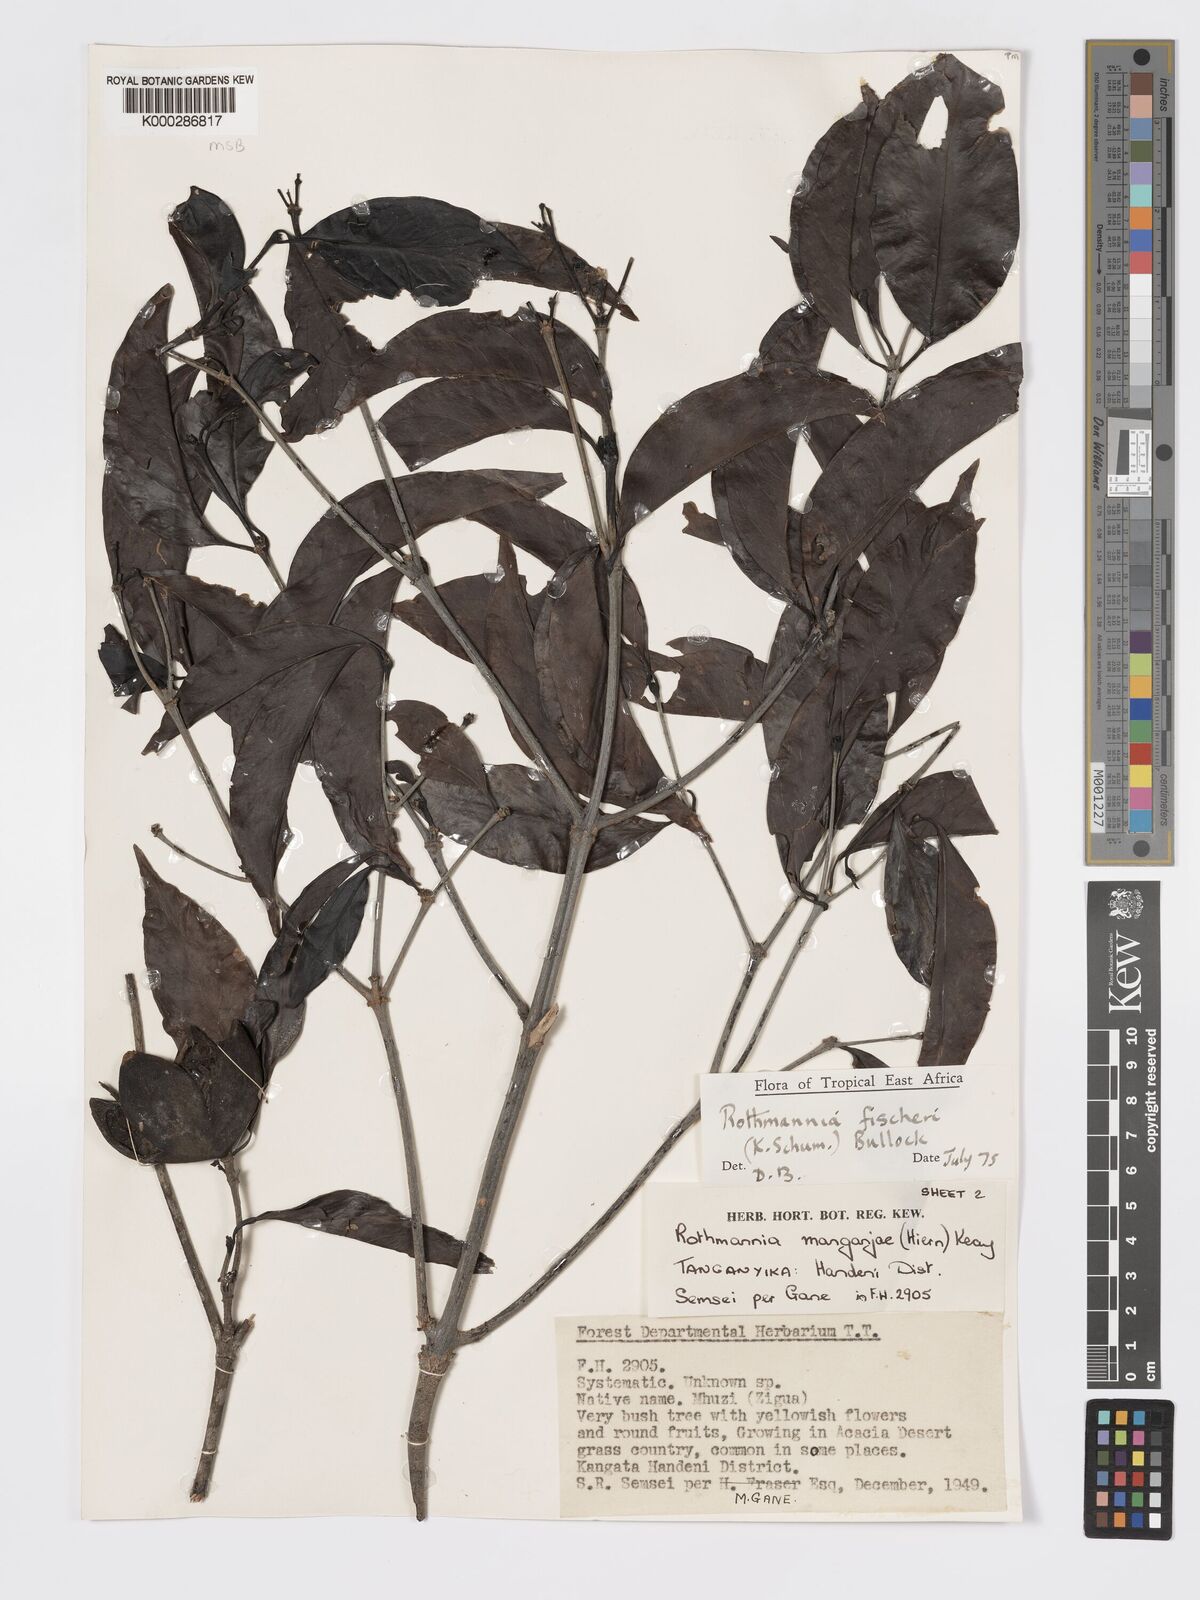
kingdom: Plantae
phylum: Tracheophyta
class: Magnoliopsida
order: Gentianales
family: Rubiaceae
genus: Rothmannia
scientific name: Rothmannia ravae
